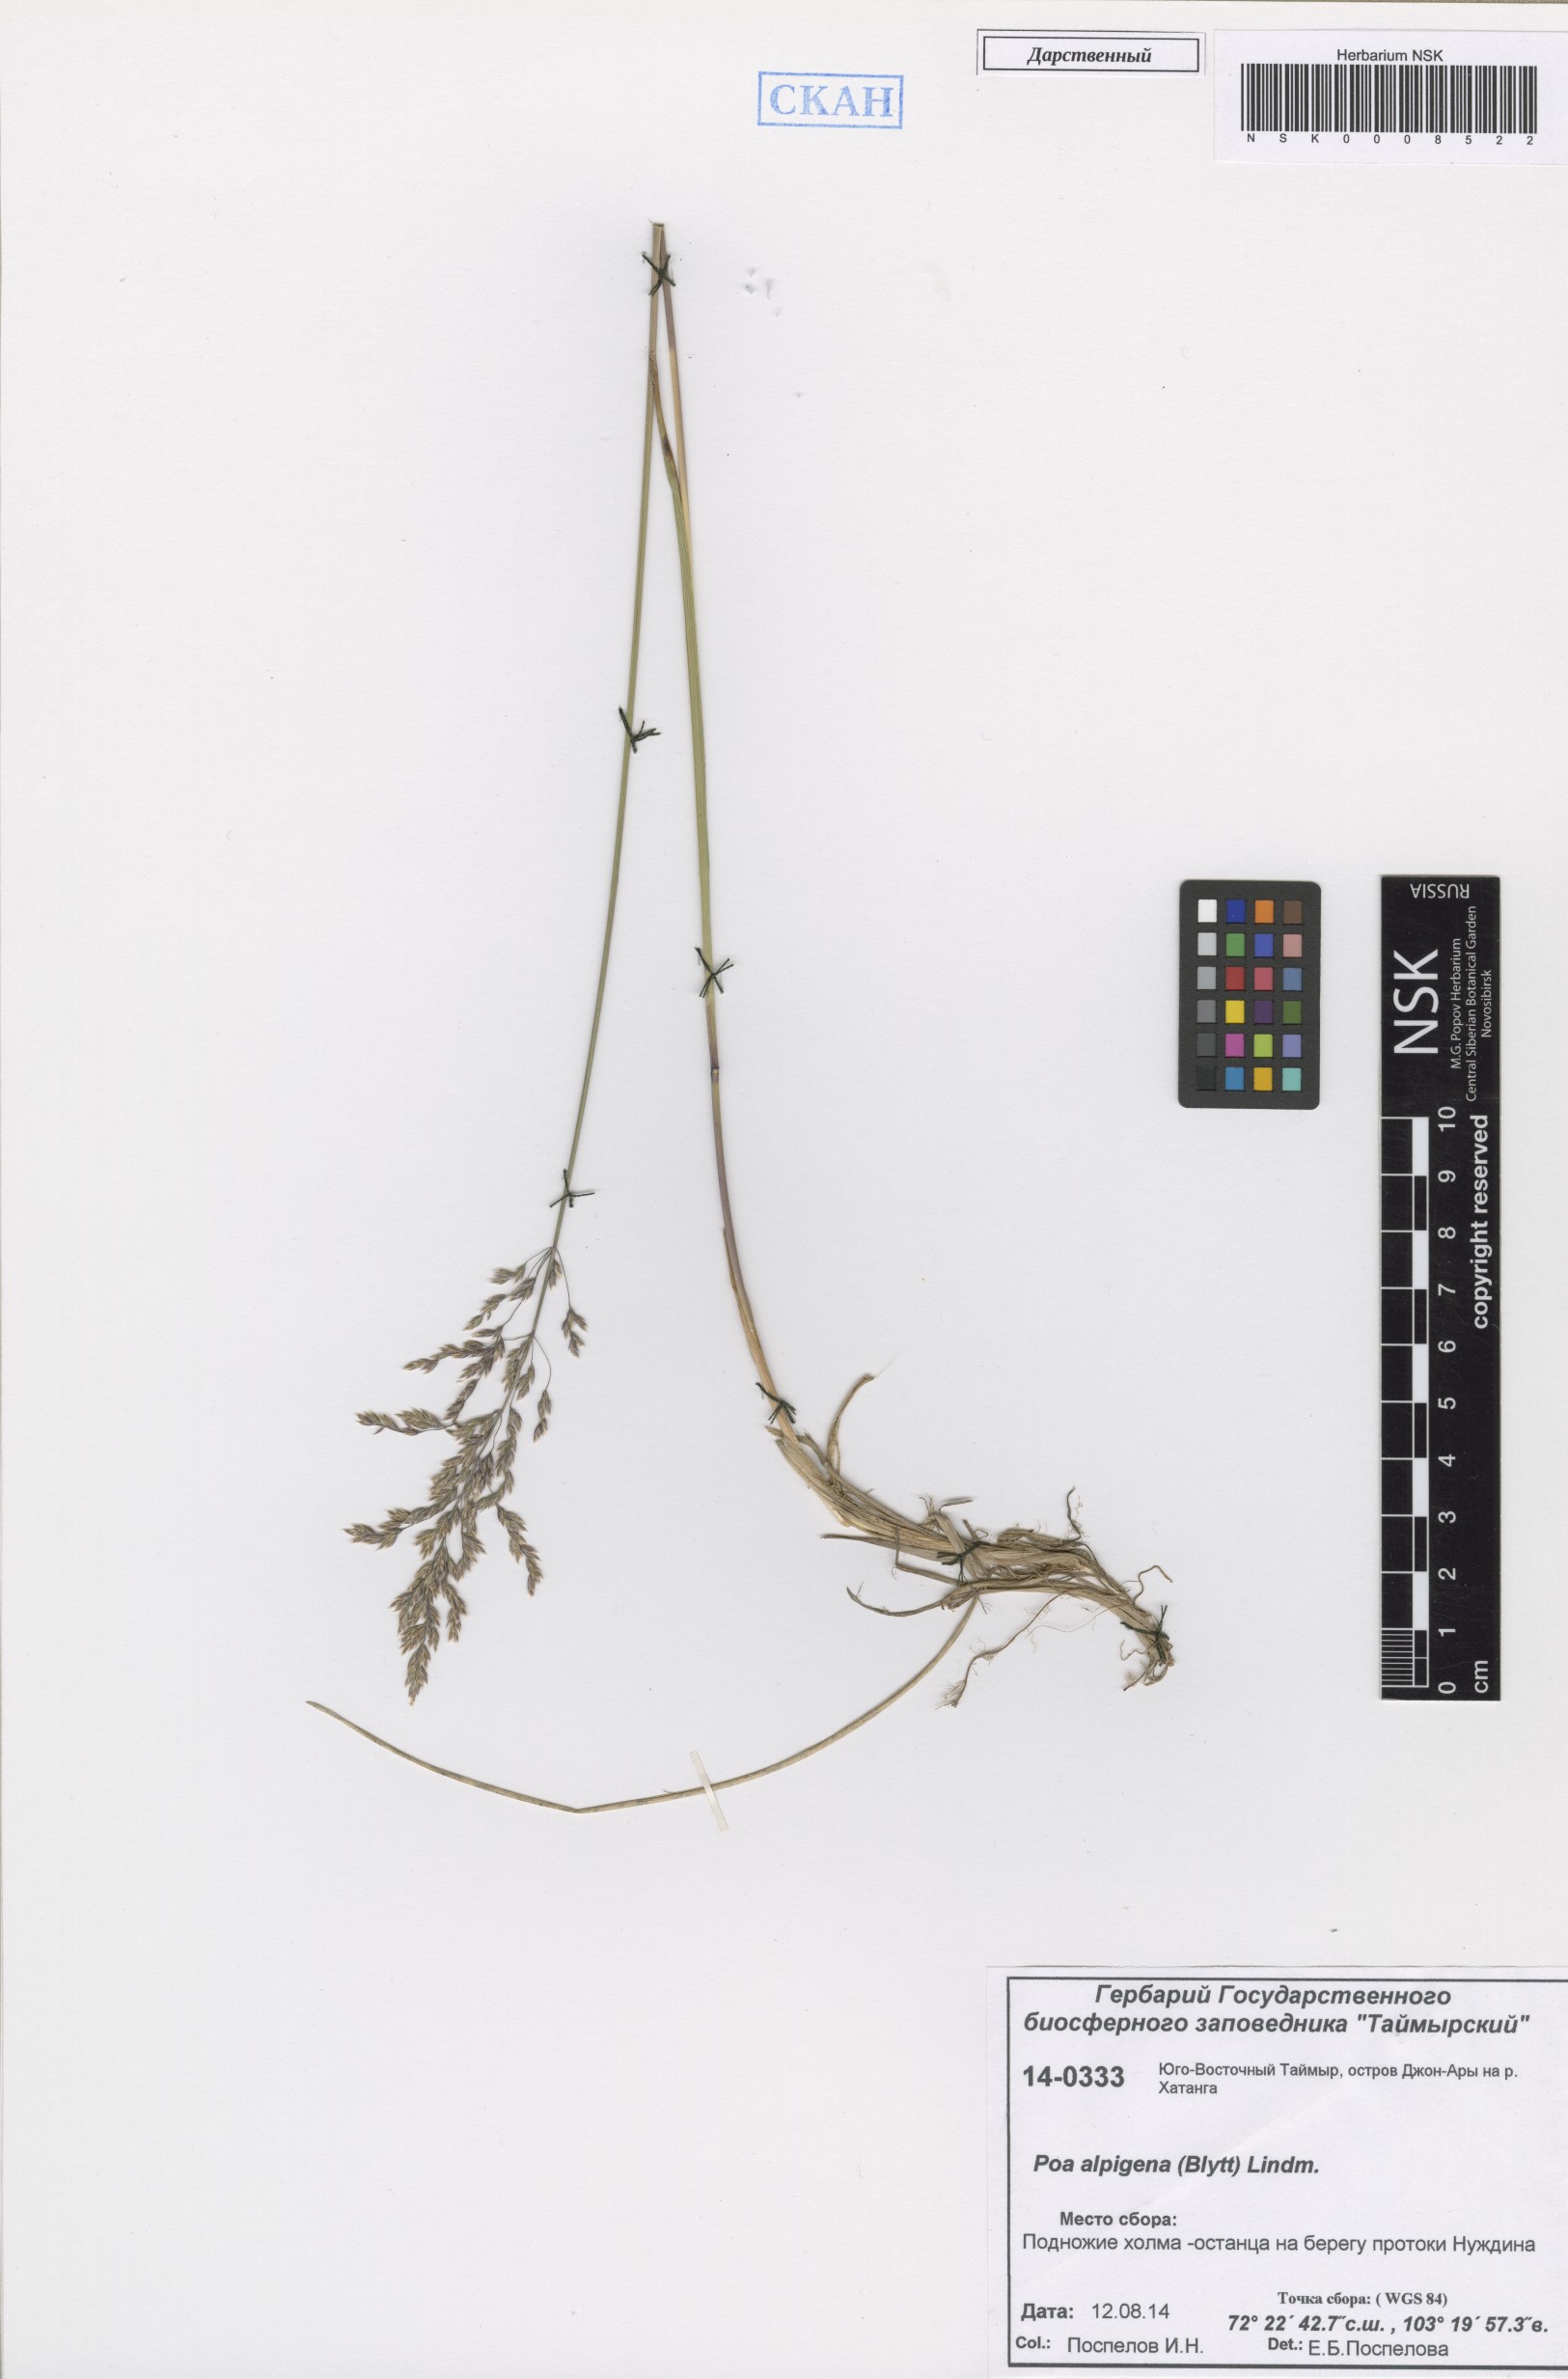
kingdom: Plantae
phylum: Tracheophyta
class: Liliopsida
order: Poales
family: Poaceae
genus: Poa
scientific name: Poa alpigena
